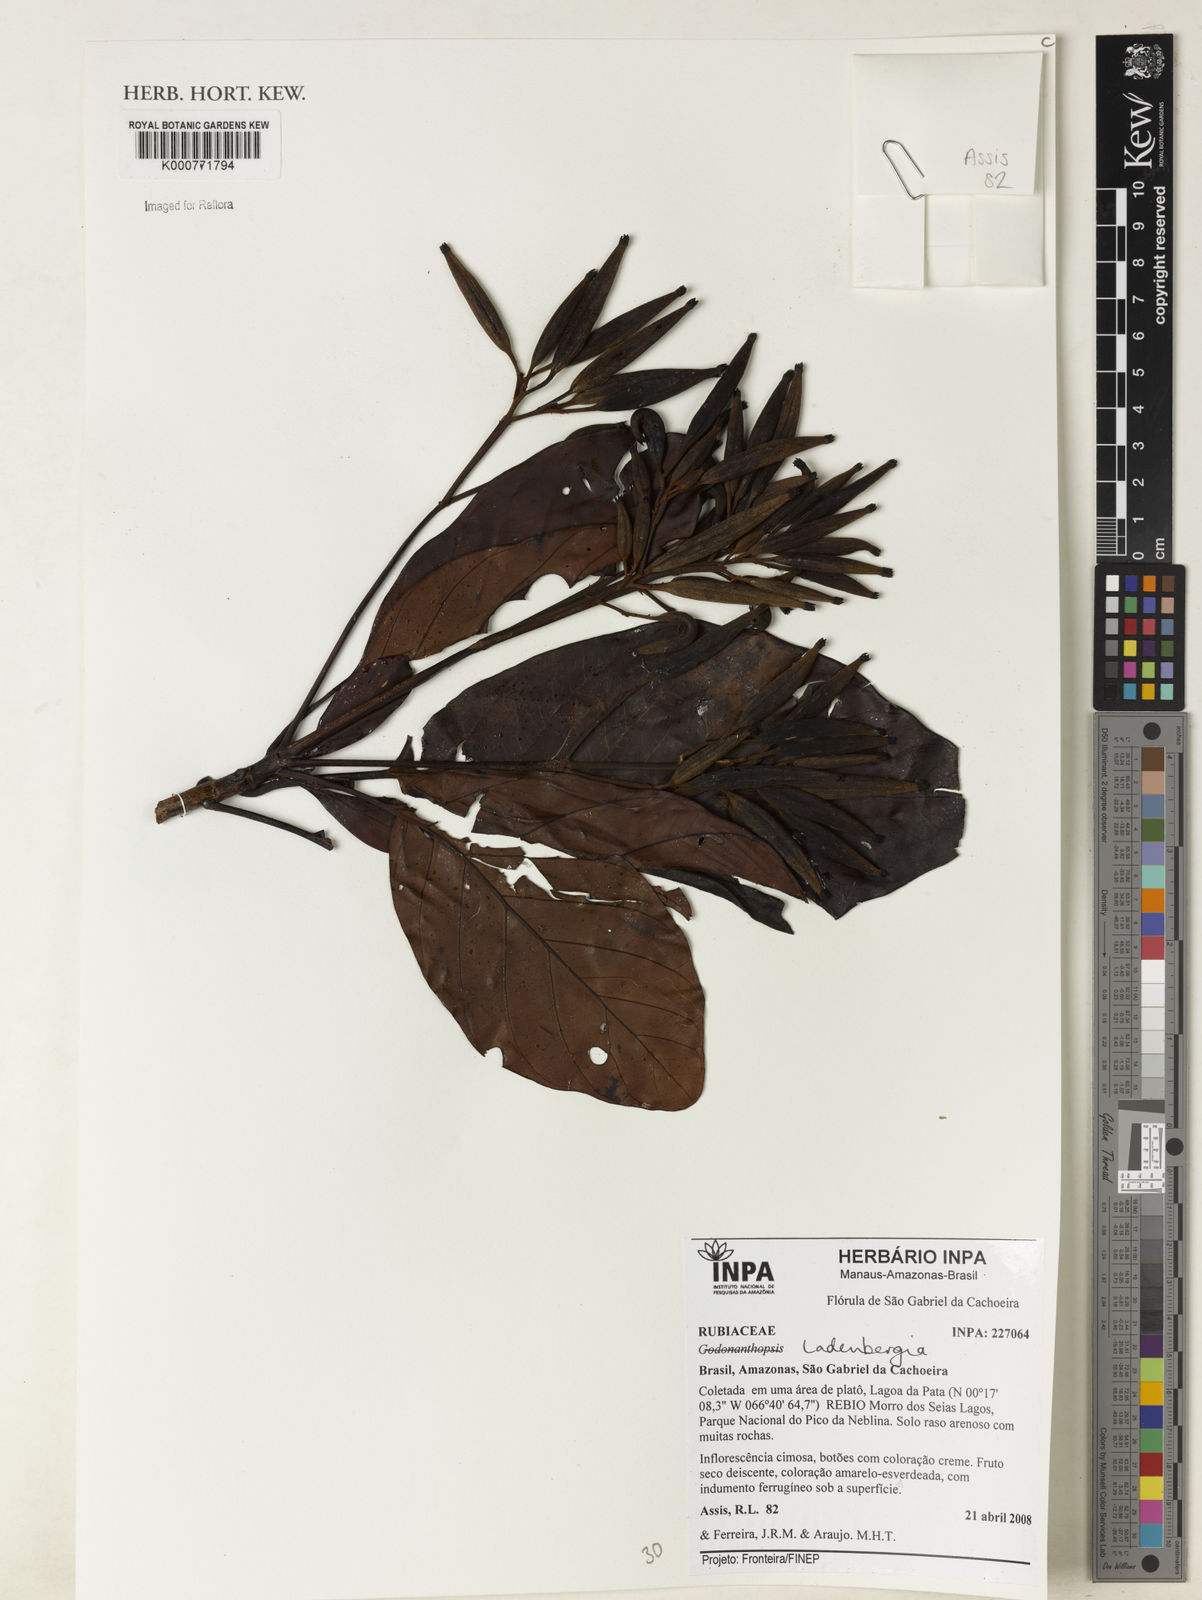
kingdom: Plantae
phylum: Tracheophyta
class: Magnoliopsida
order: Gentianales
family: Rubiaceae
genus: Ladenbergia
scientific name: Ladenbergia
